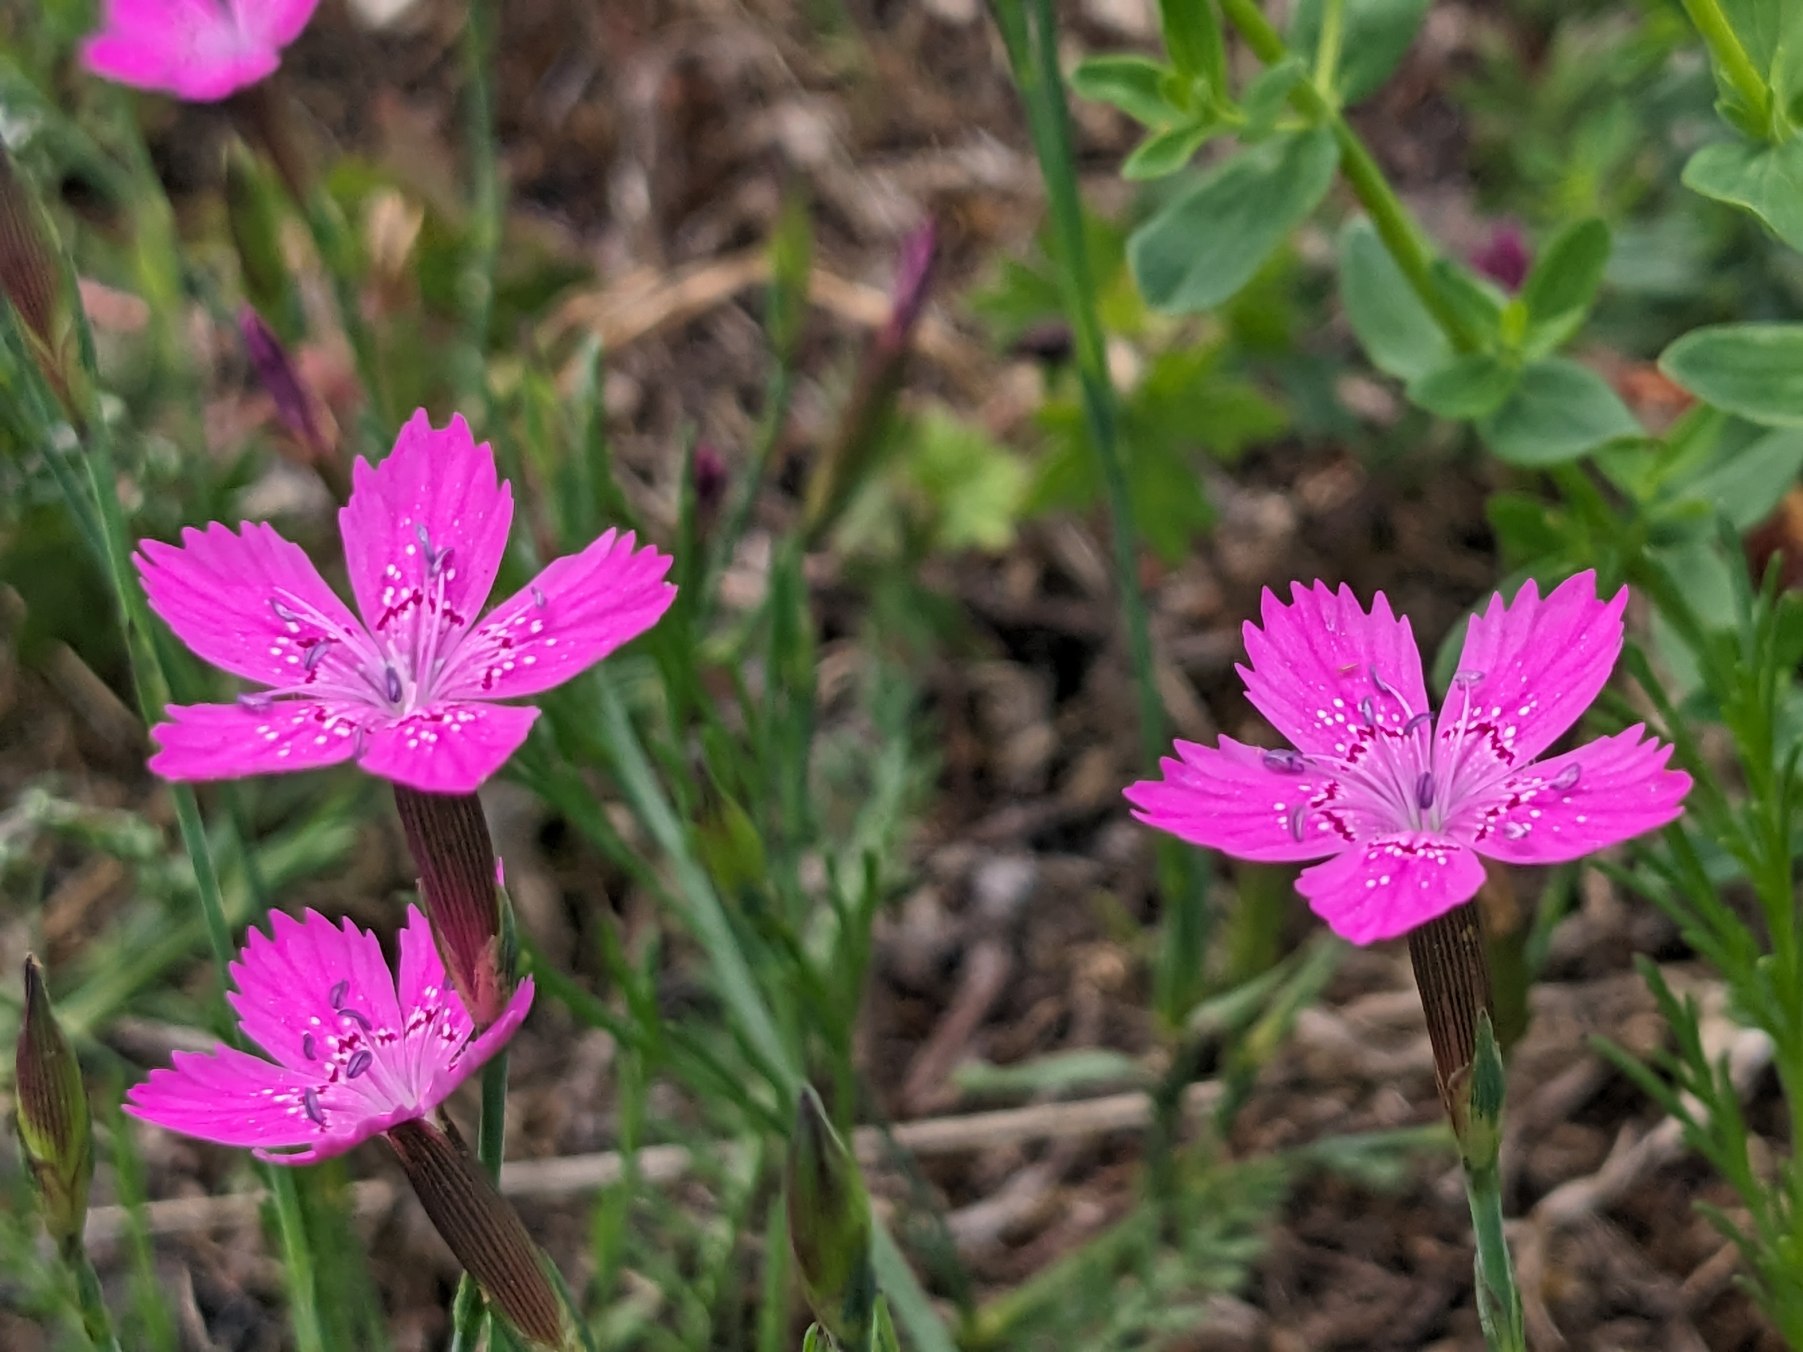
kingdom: Plantae
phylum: Tracheophyta
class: Magnoliopsida
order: Caryophyllales
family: Caryophyllaceae
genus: Dianthus
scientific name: Dianthus deltoides
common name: Bakke-nellike
